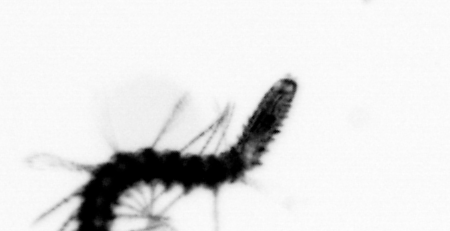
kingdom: Animalia
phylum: Annelida
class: Polychaeta
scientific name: Polychaeta
